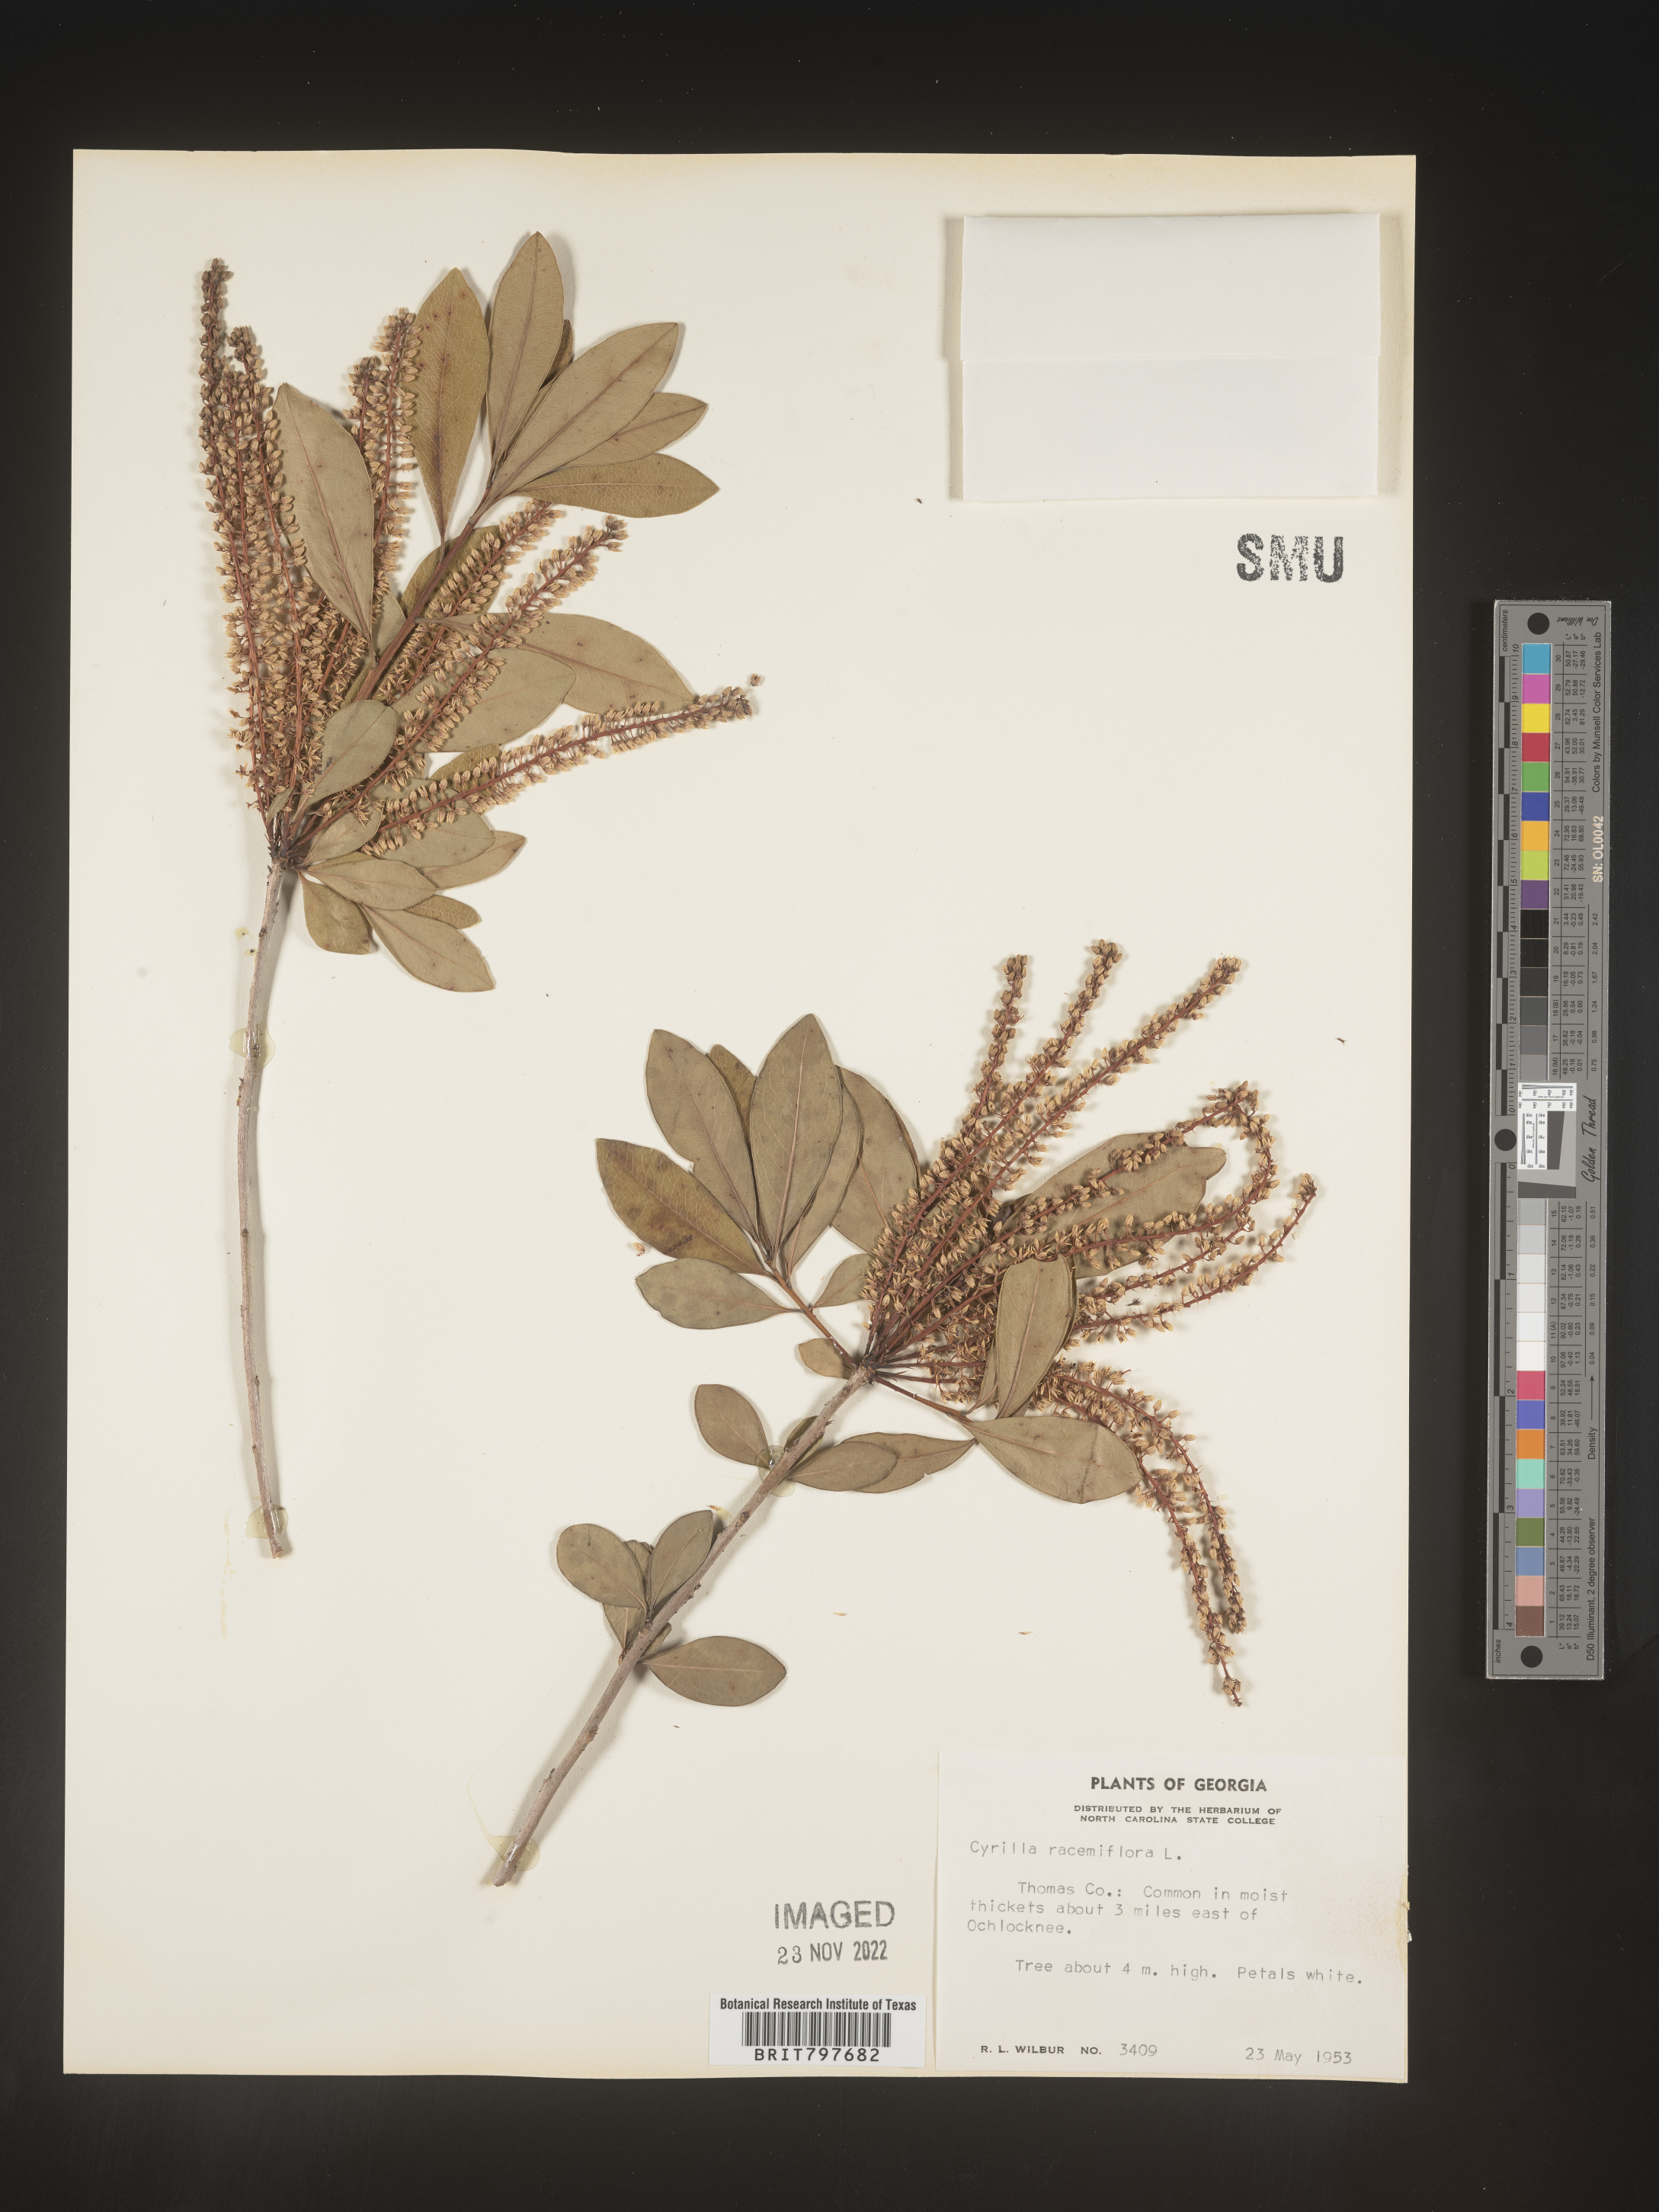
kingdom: Plantae
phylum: Tracheophyta
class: Magnoliopsida
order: Ericales
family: Cyrillaceae
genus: Cyrilla
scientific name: Cyrilla racemiflora
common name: Black titi
